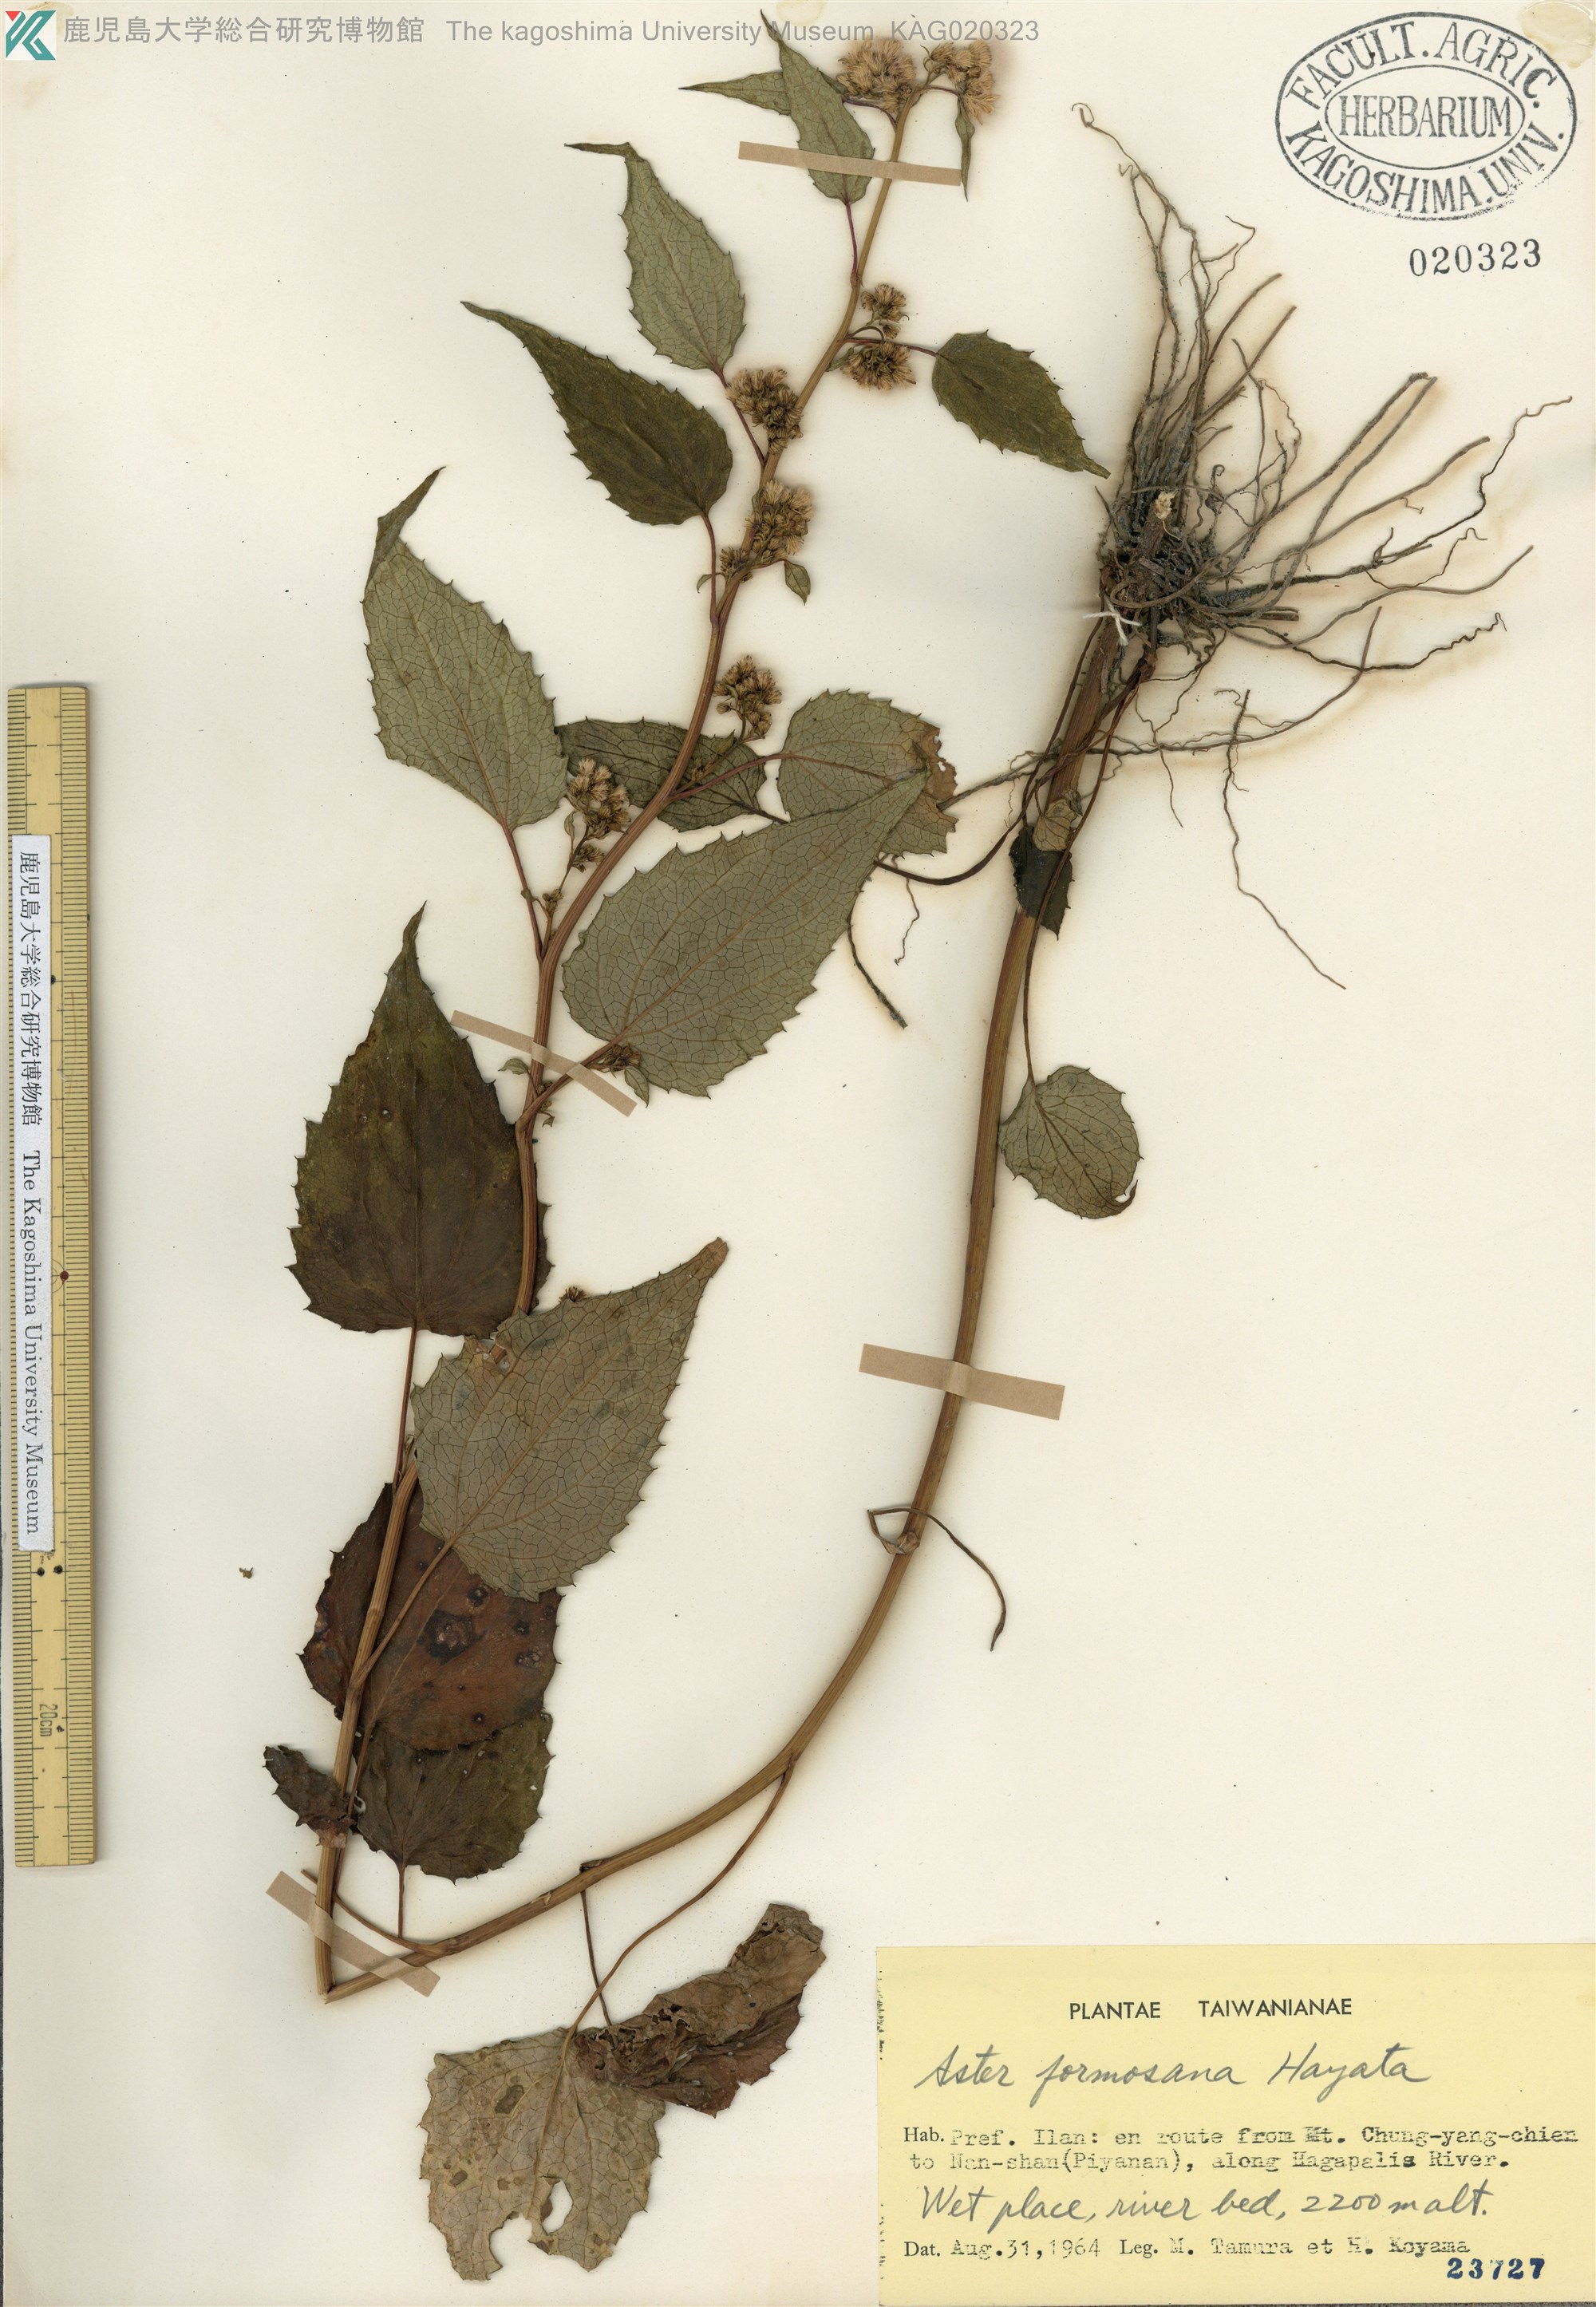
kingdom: Plantae
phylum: Tracheophyta
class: Magnoliopsida
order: Asterales
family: Asteraceae
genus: Aster
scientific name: Aster formosanus
